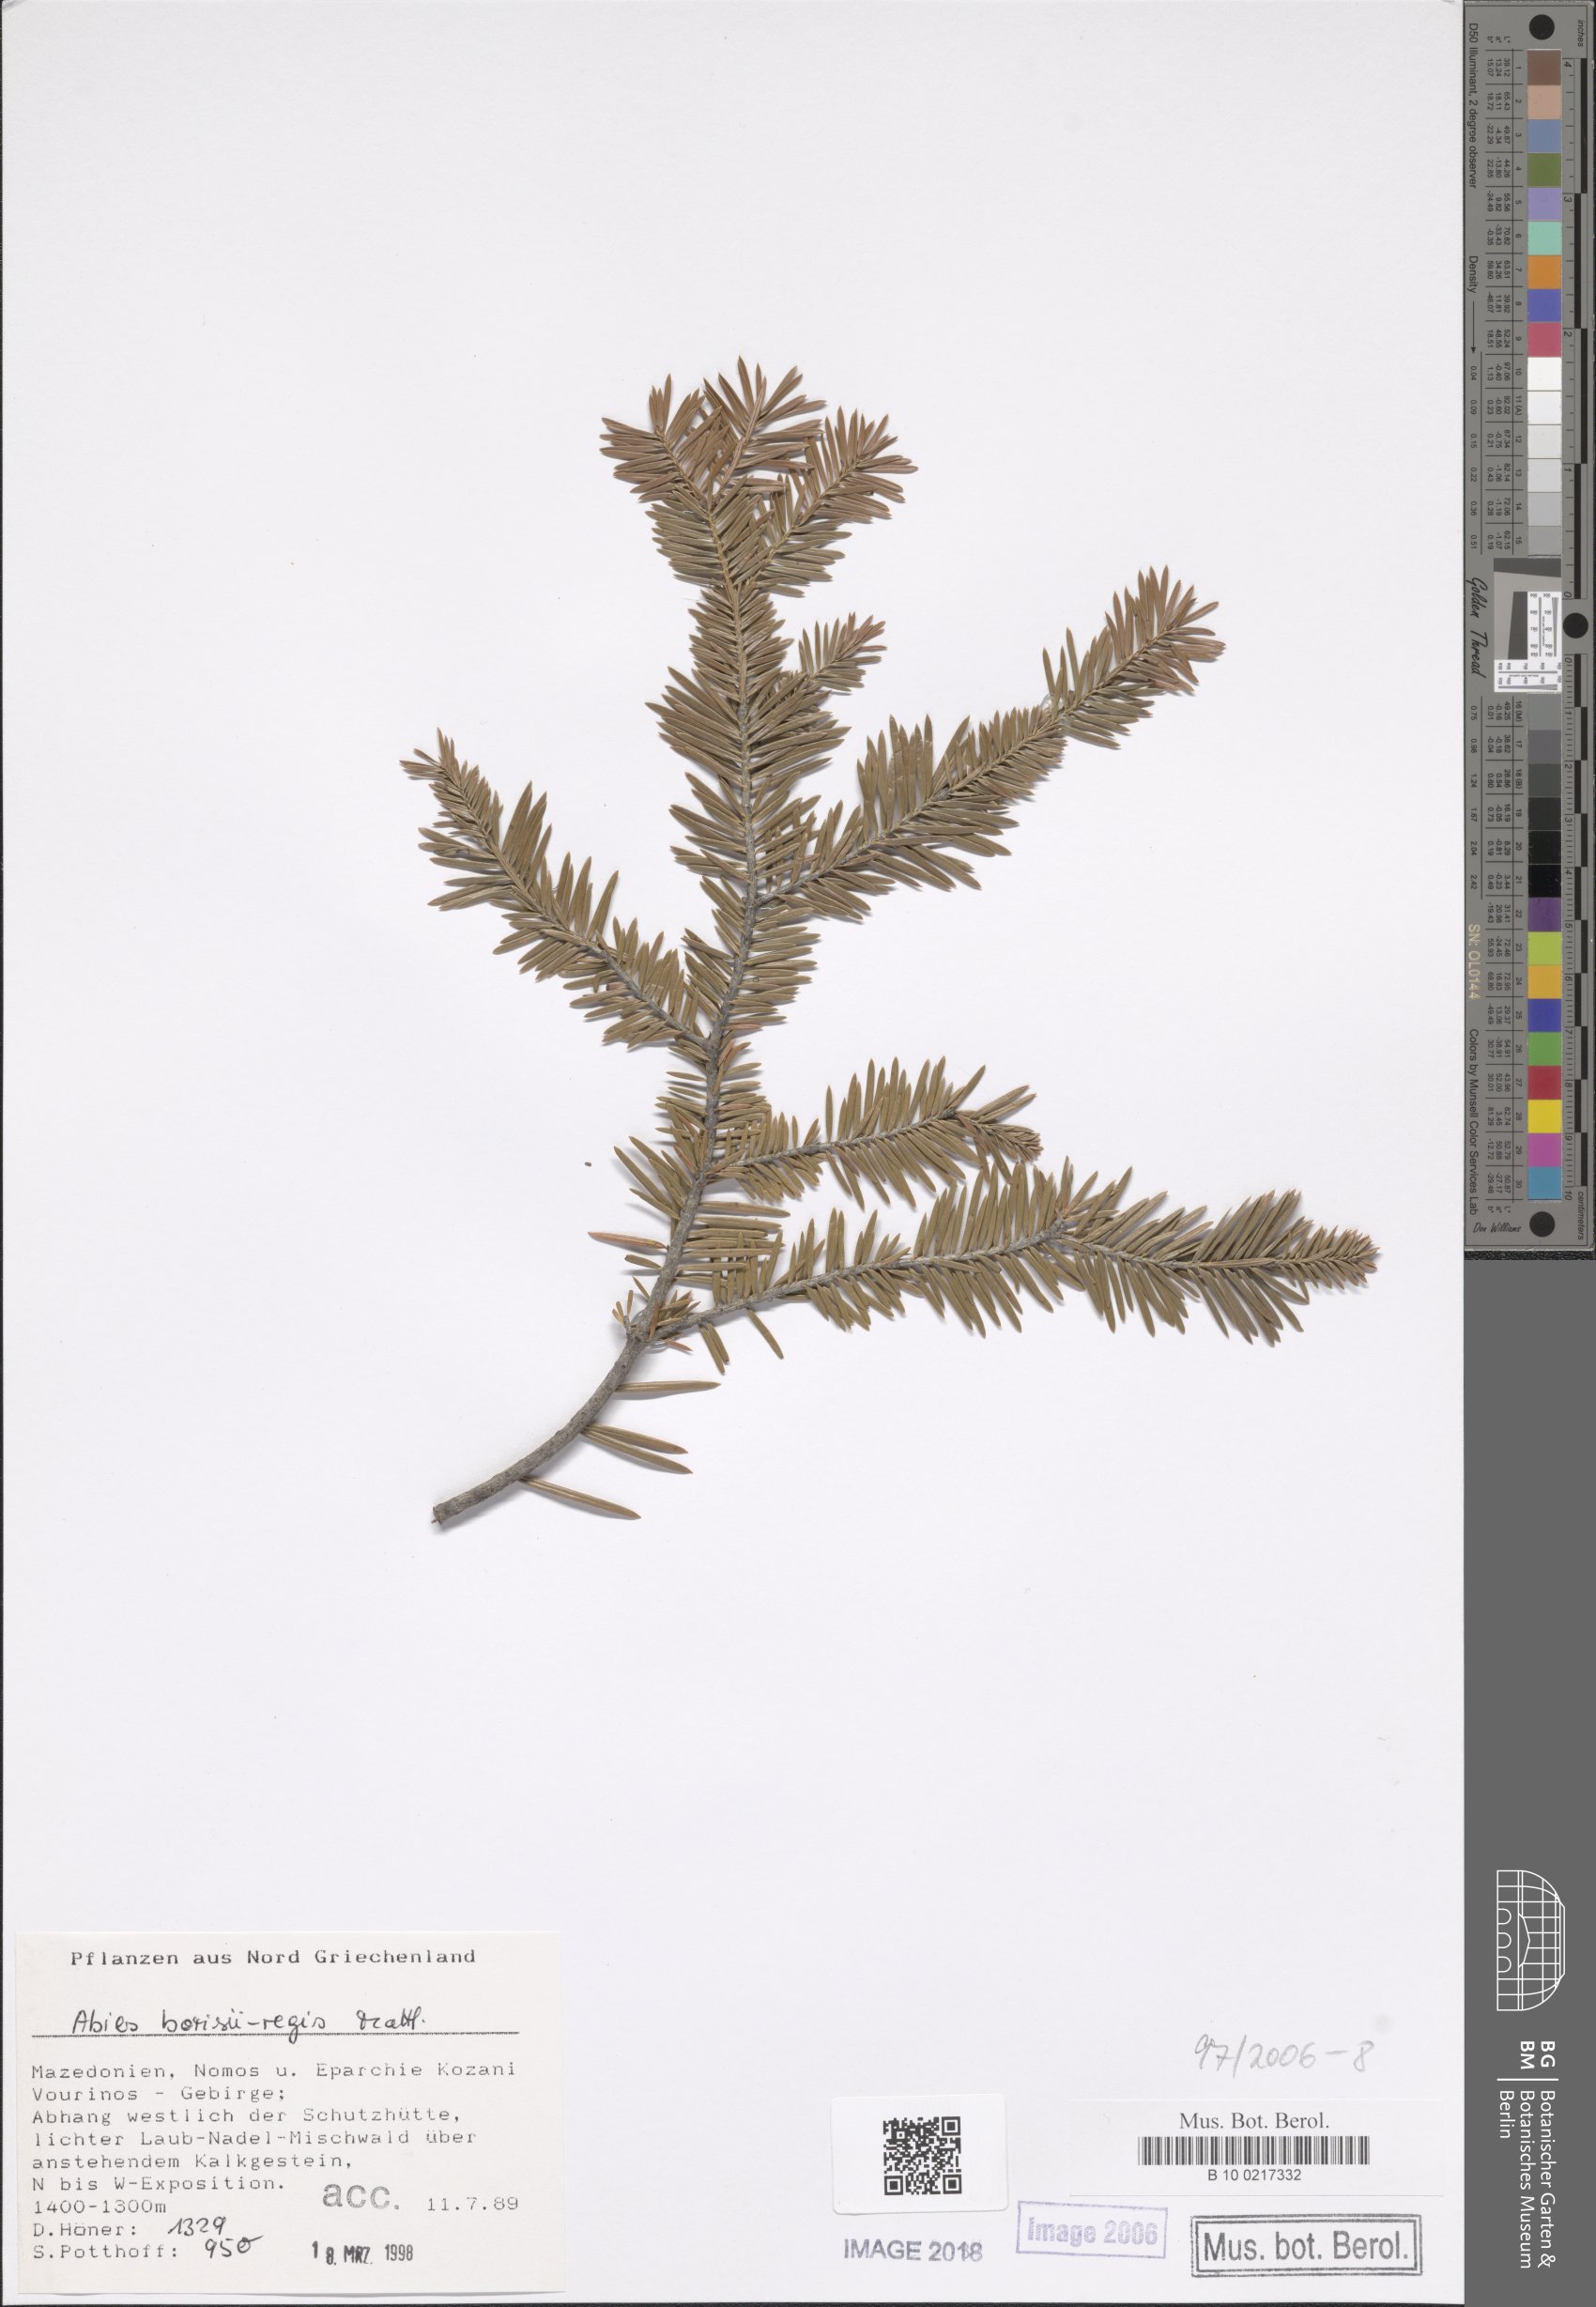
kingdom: Plantae
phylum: Tracheophyta
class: Pinopsida
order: Pinales
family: Pinaceae
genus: Abies
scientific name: Abies borisii-regis
